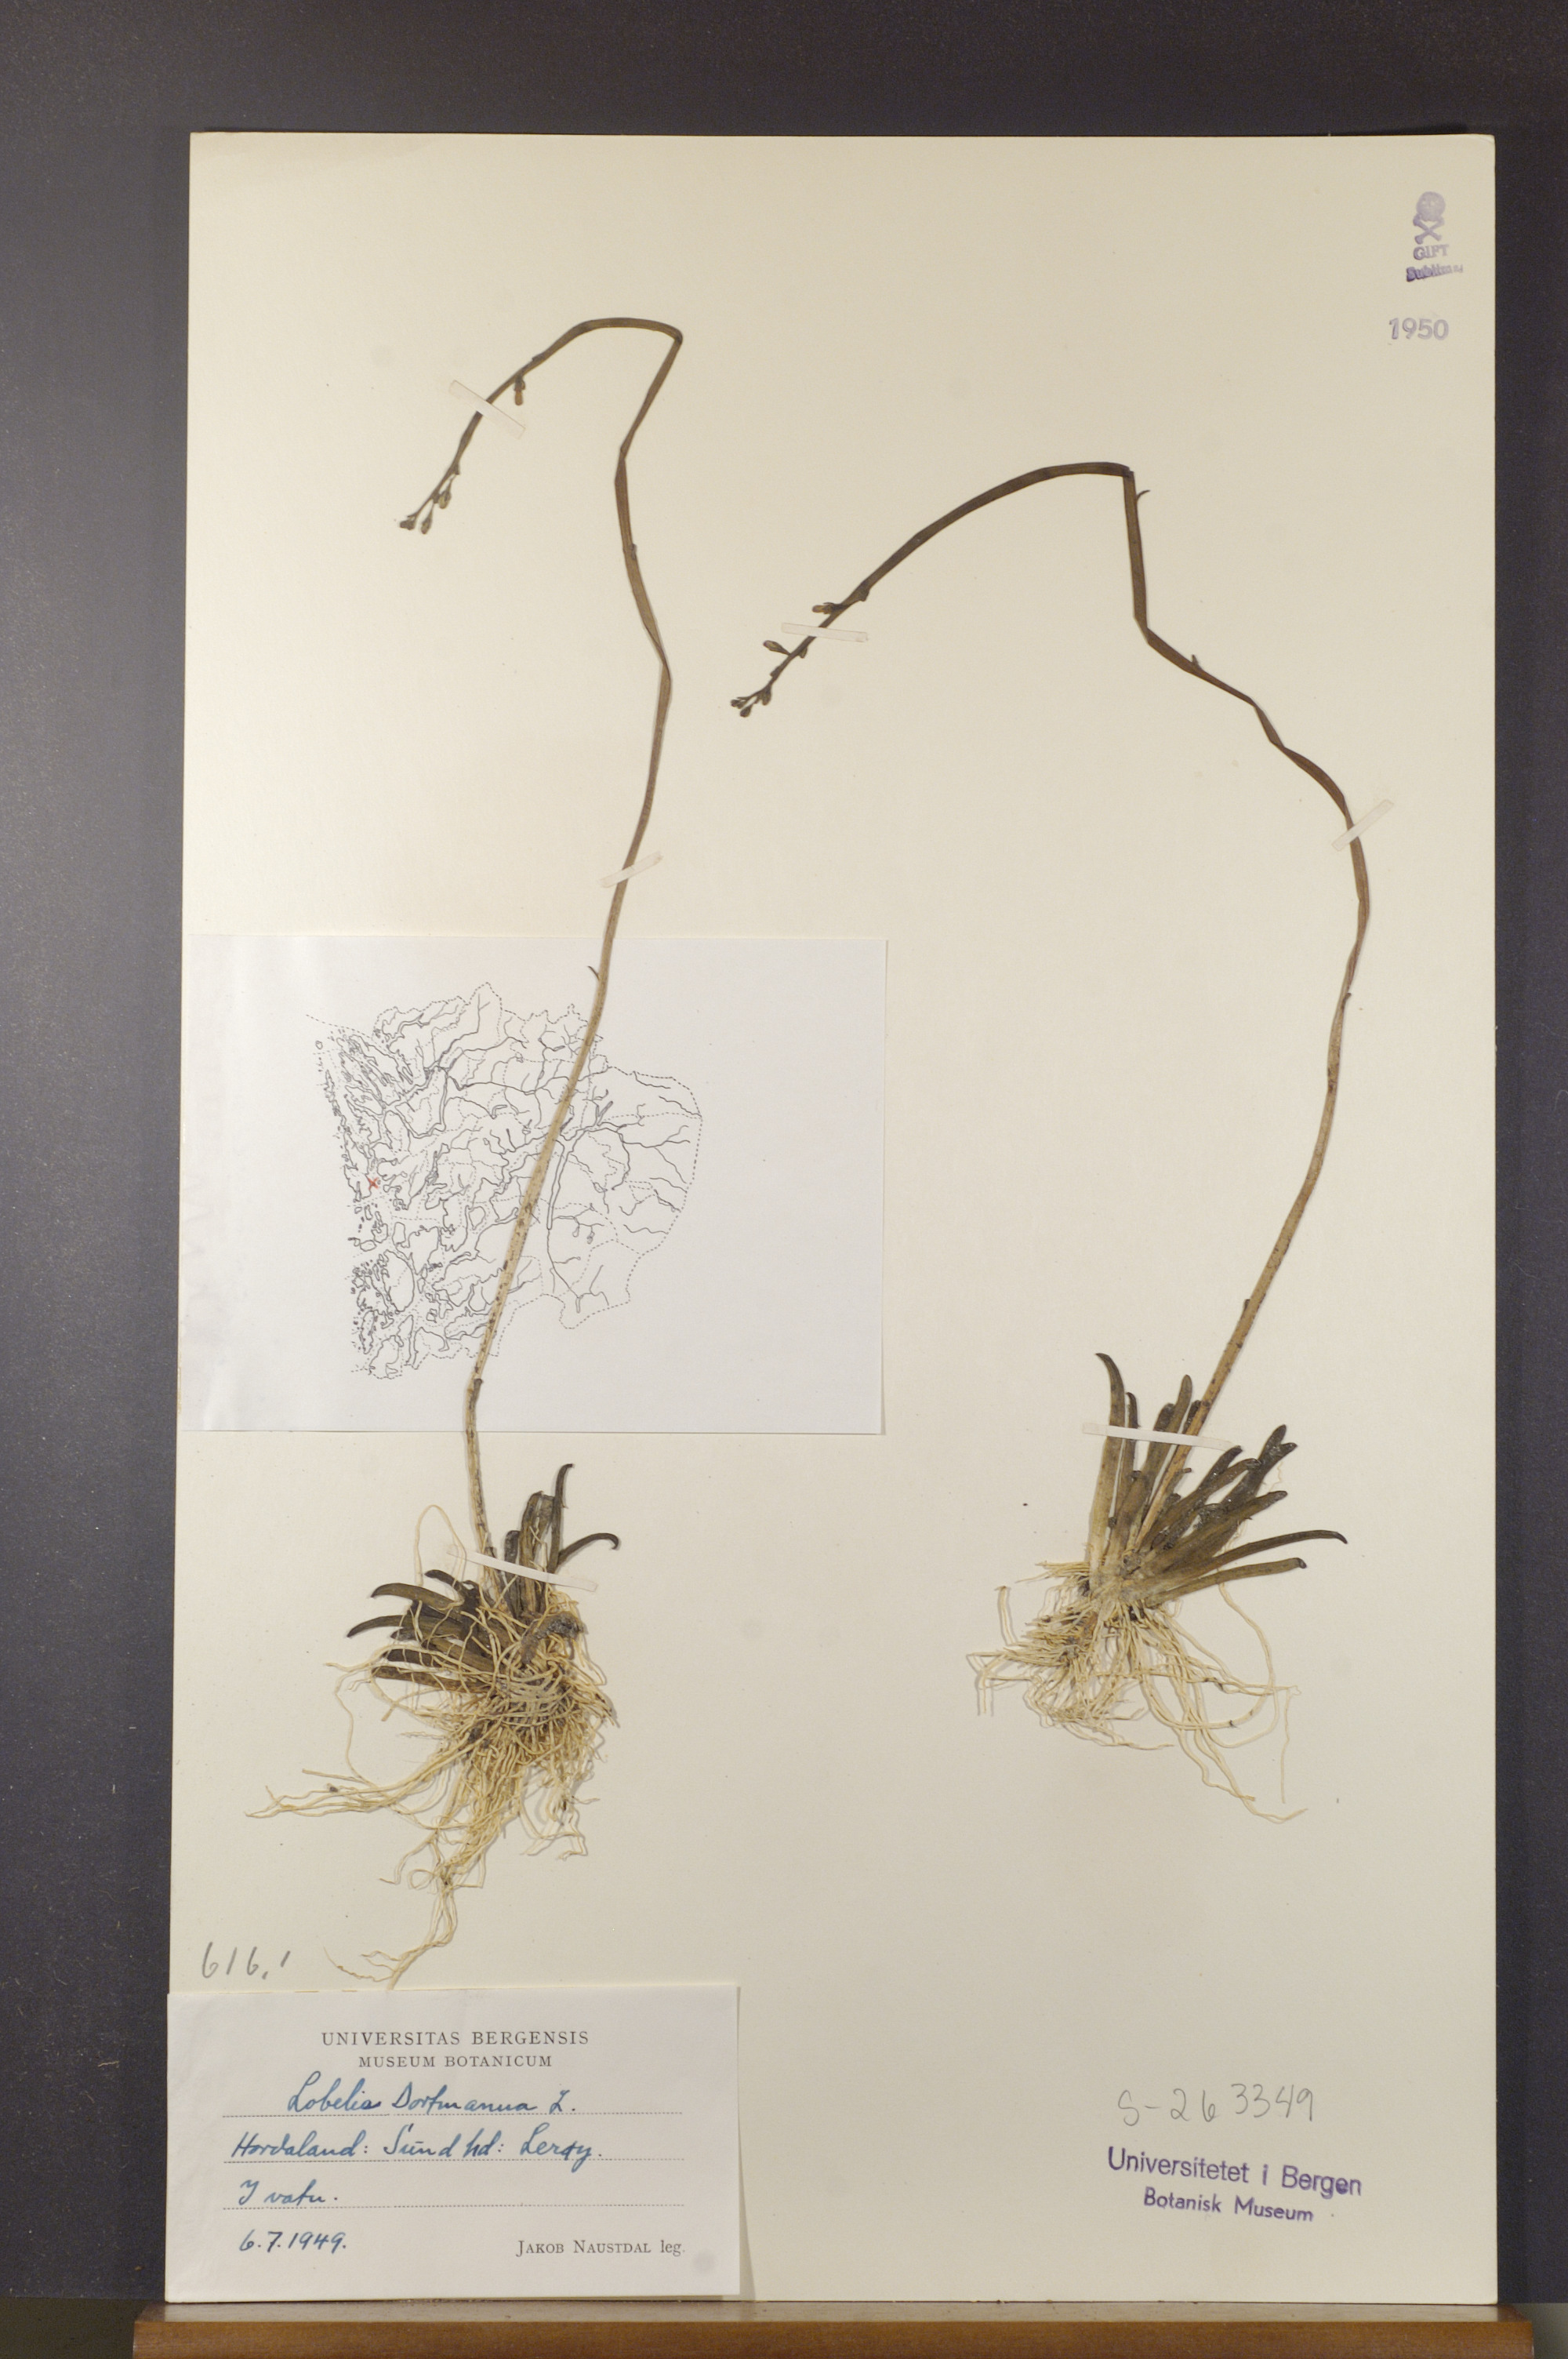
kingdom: Plantae
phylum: Tracheophyta
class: Magnoliopsida
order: Asterales
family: Campanulaceae
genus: Lobelia
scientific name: Lobelia dortmanna
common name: Water lobelia
